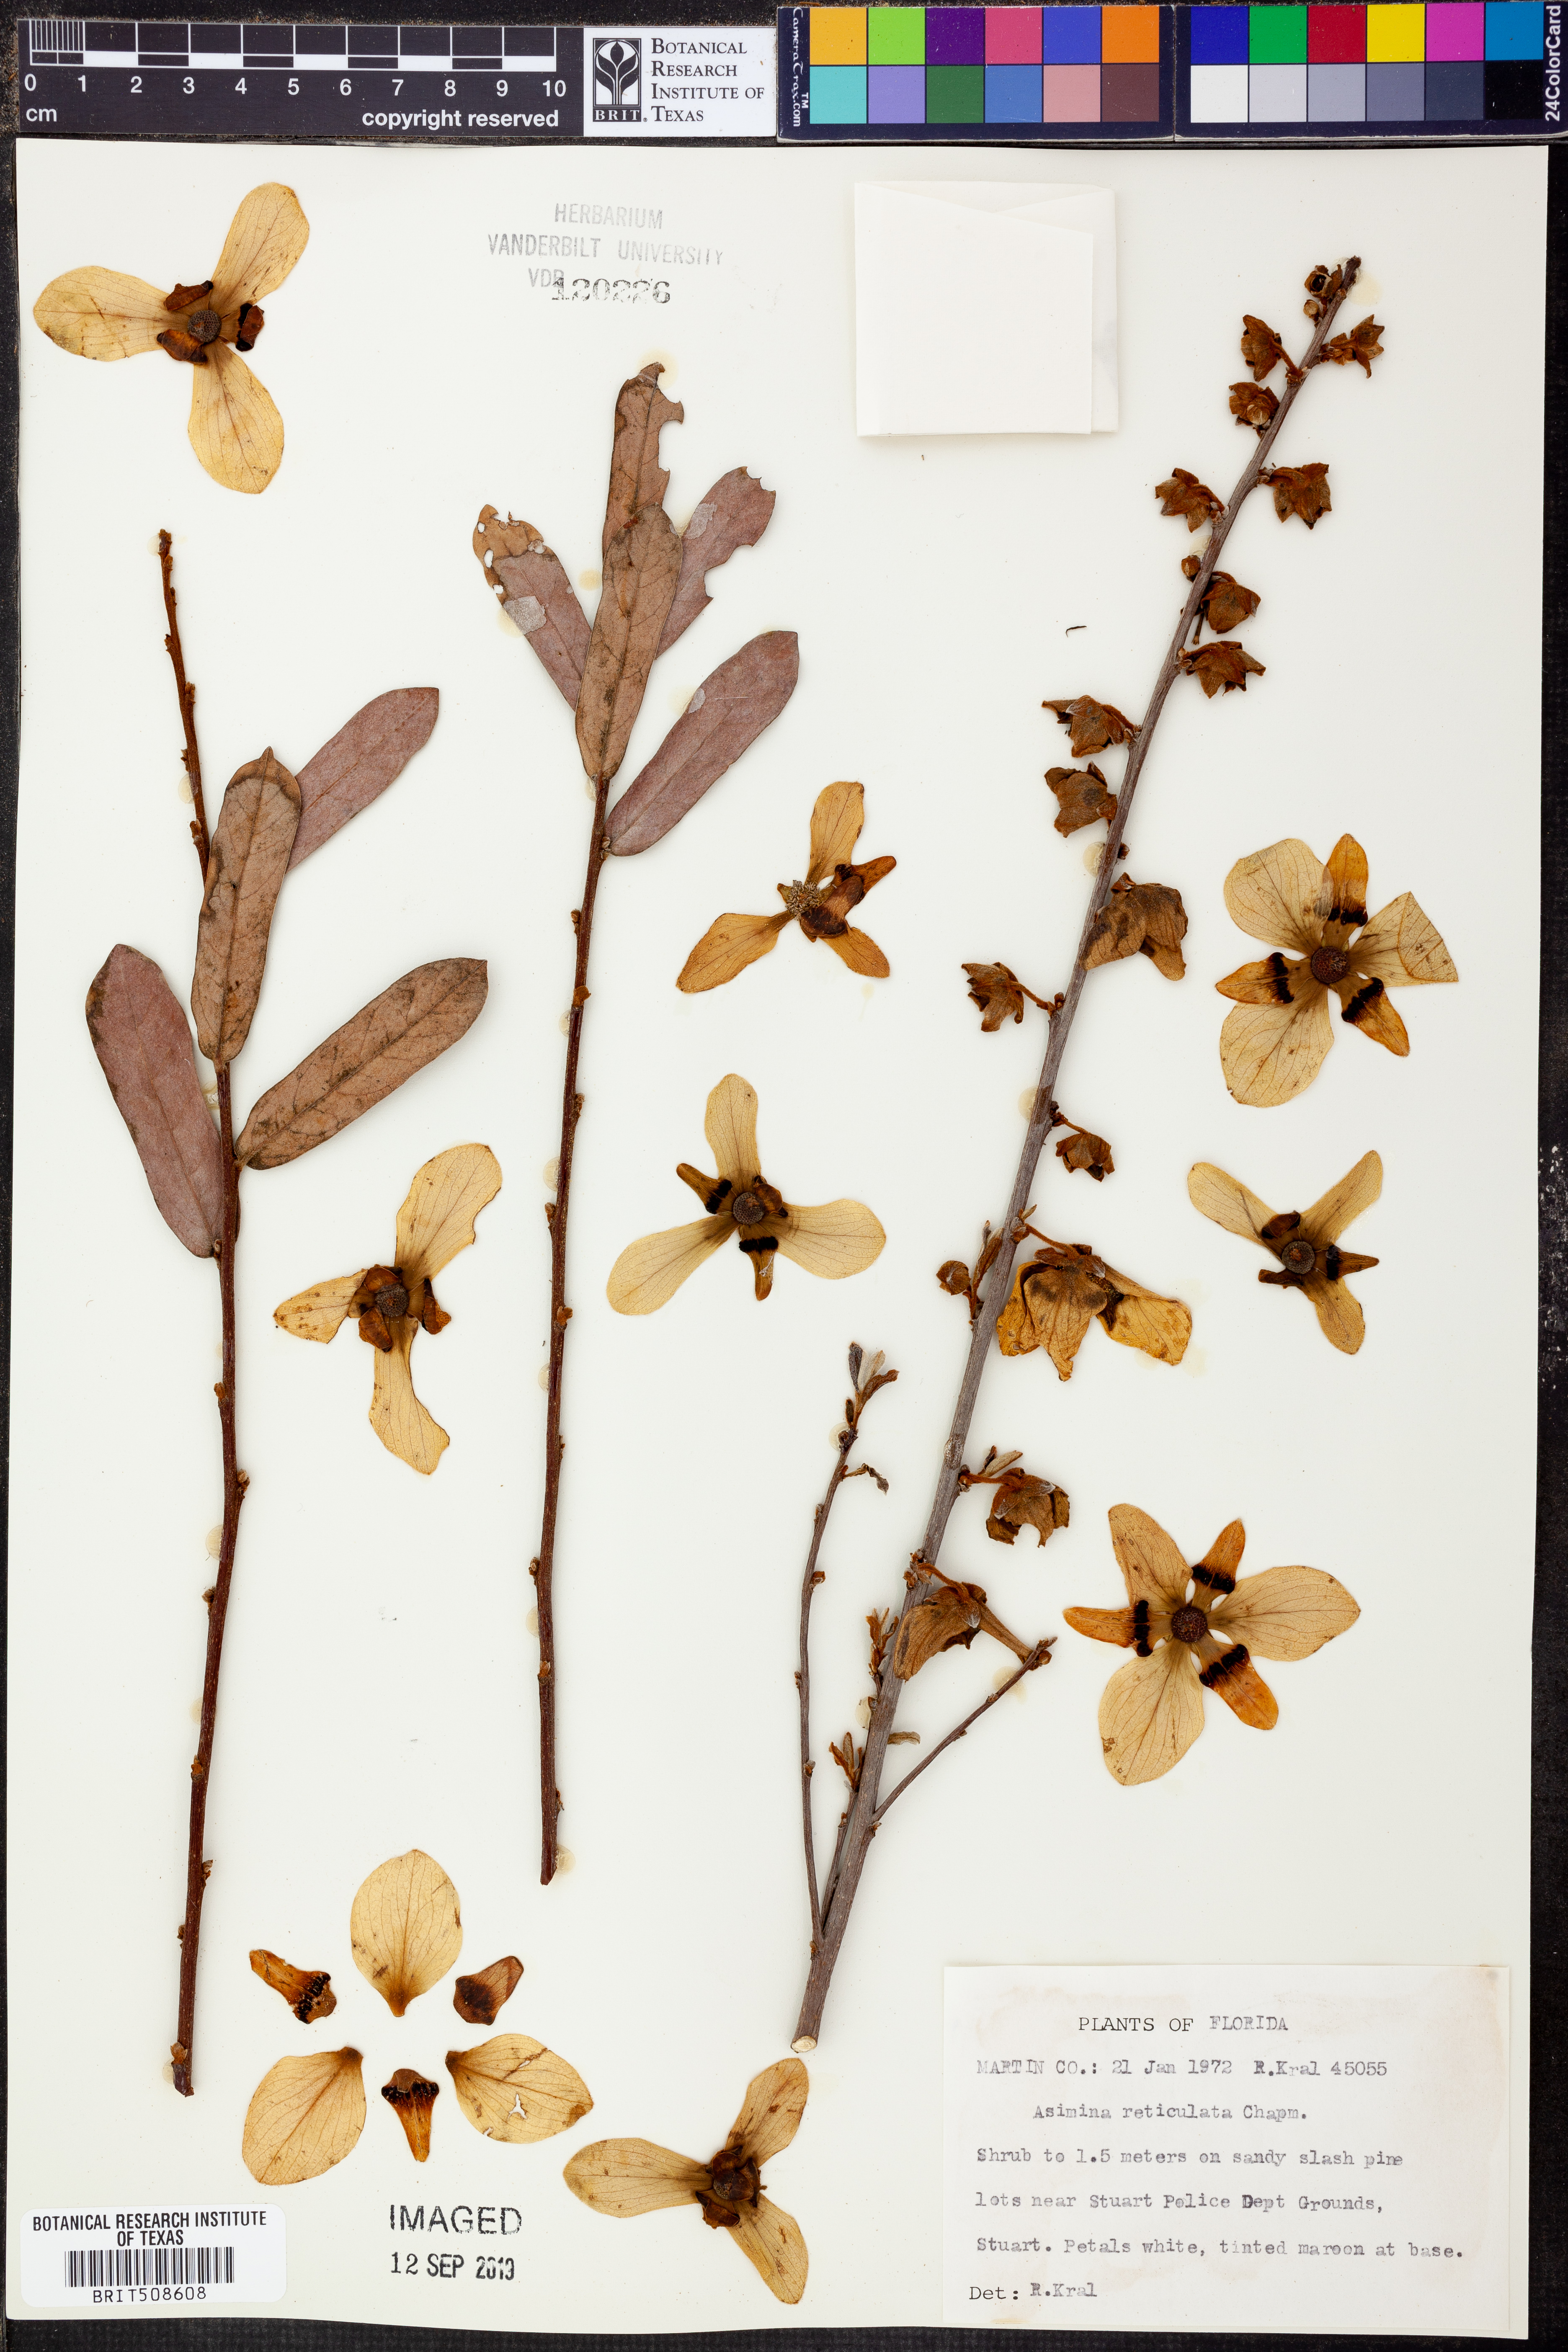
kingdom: Plantae
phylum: Tracheophyta
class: Magnoliopsida
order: Magnoliales
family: Annonaceae
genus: Asimina
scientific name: Asimina reticulata
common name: Flag pawpaw
